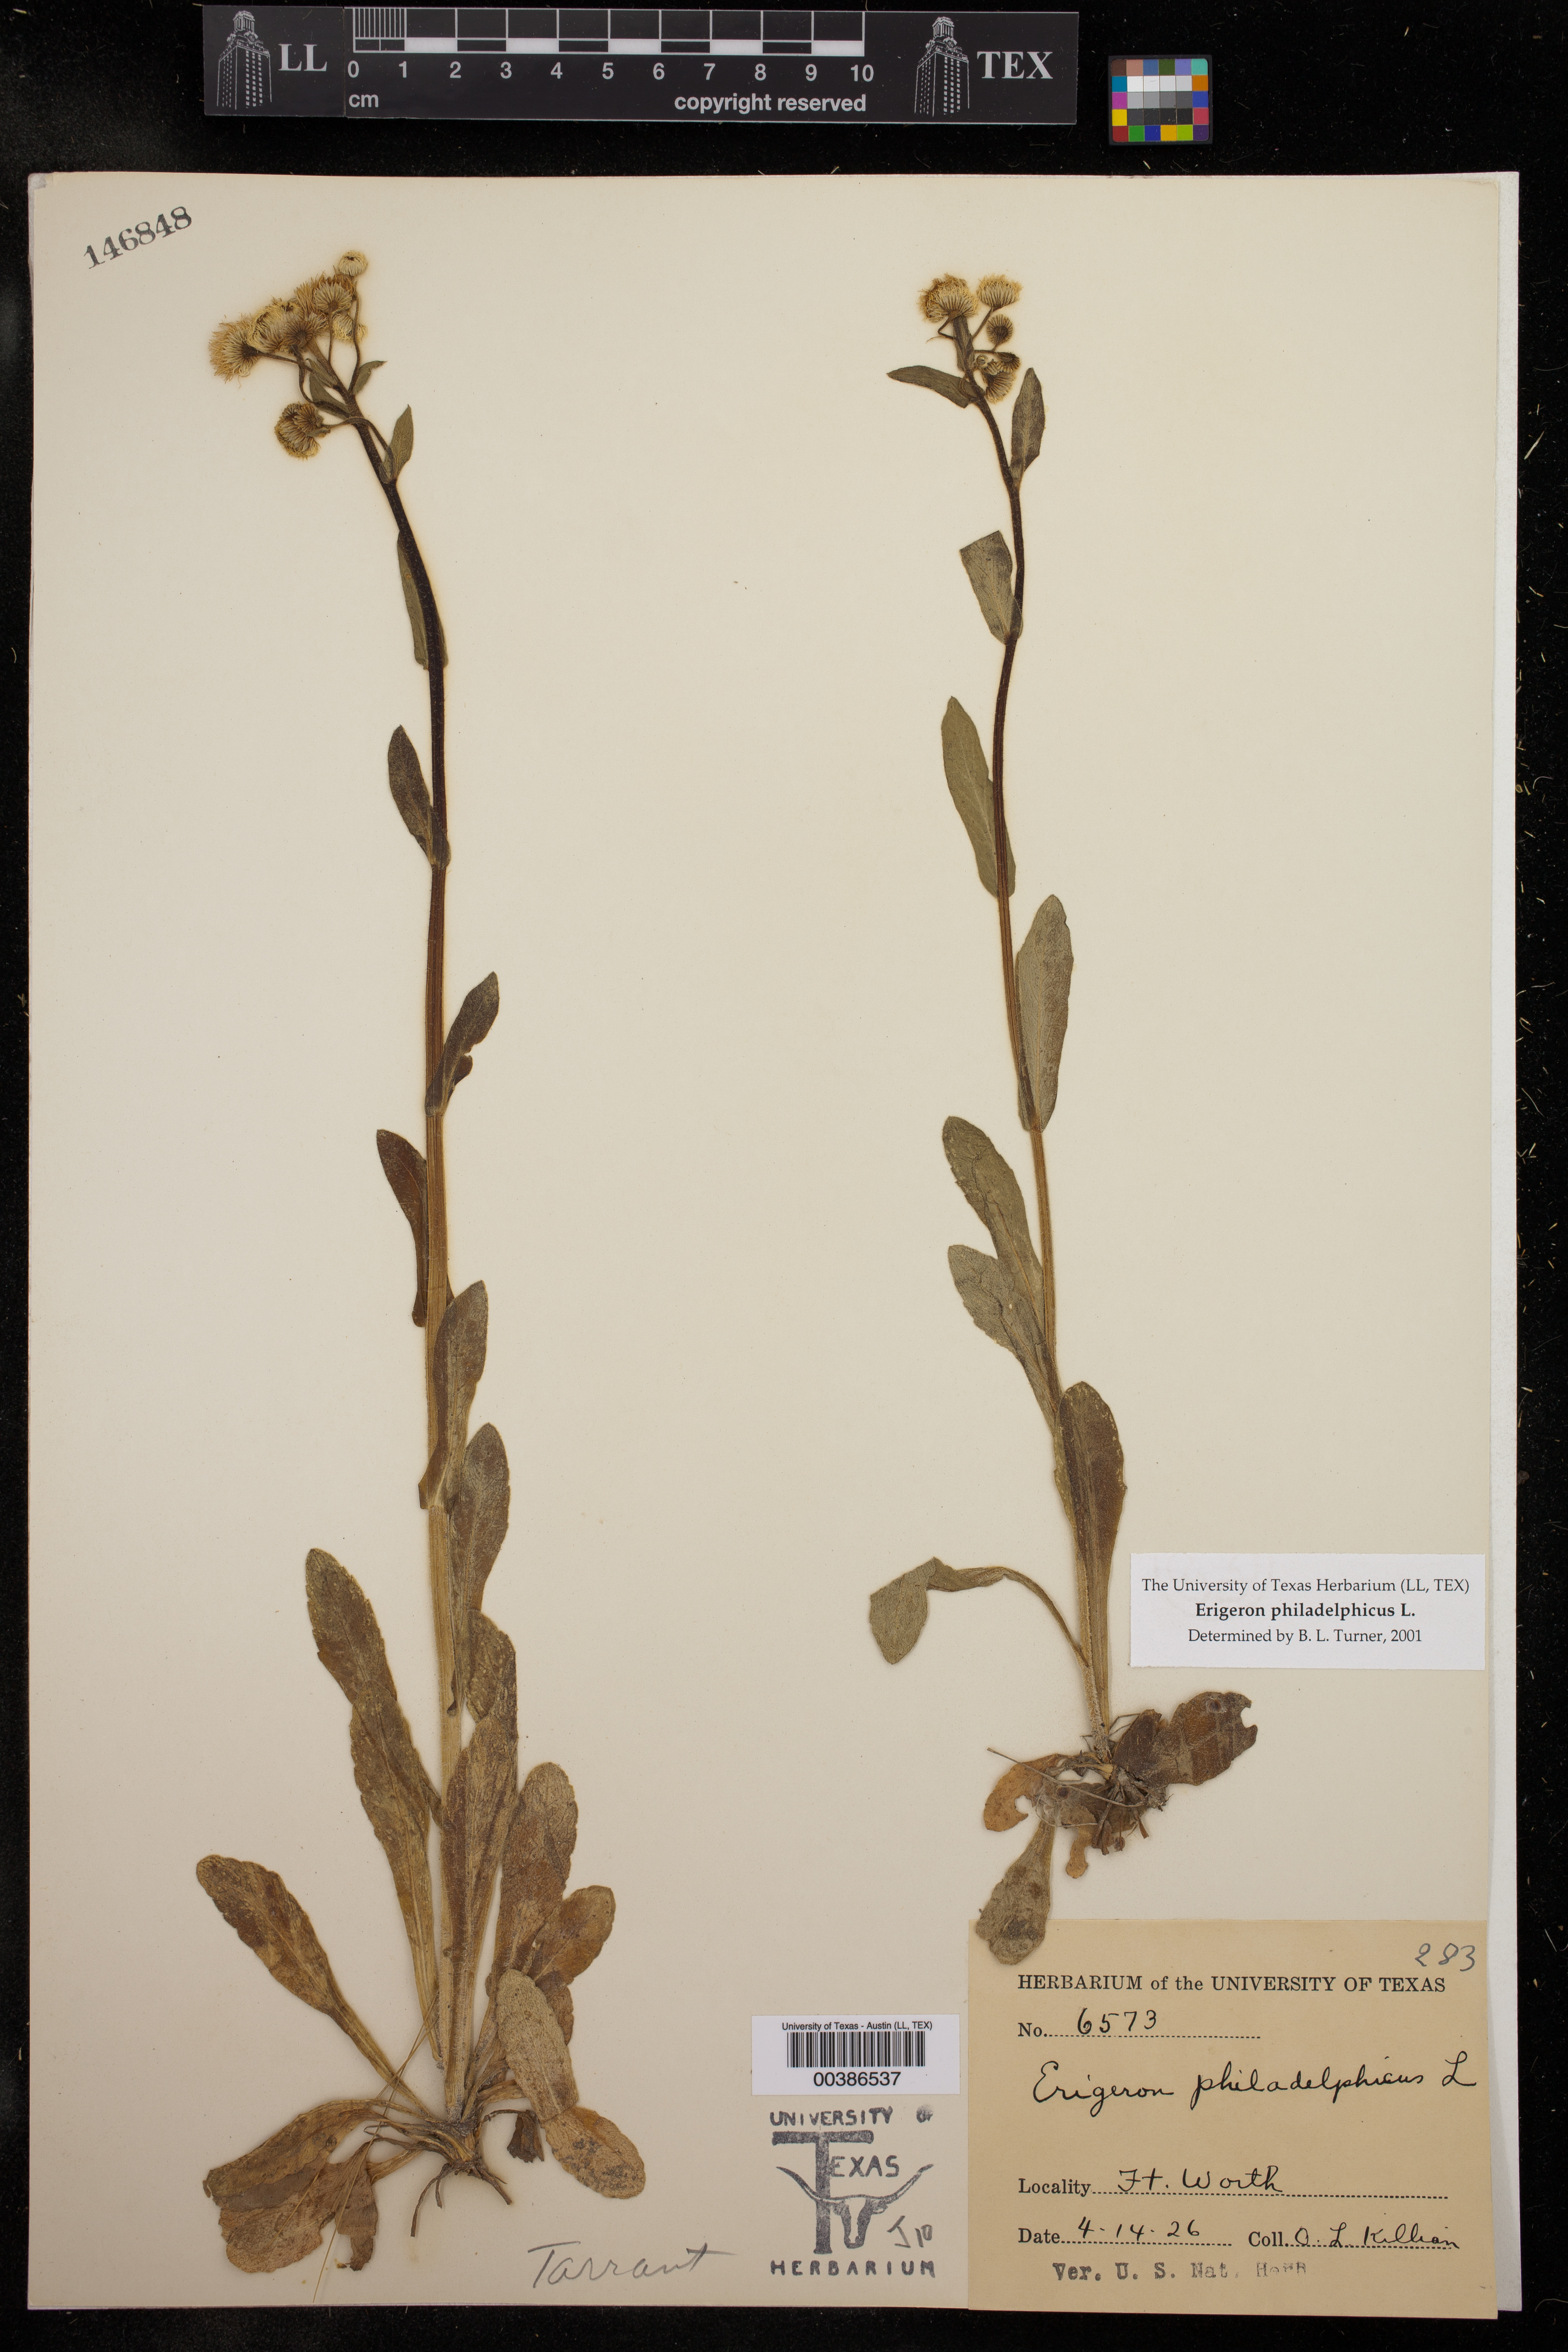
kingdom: Plantae
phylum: Tracheophyta
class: Magnoliopsida
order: Asterales
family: Asteraceae
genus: Erigeron
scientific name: Erigeron philadelphicus
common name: Robin's-plantain
